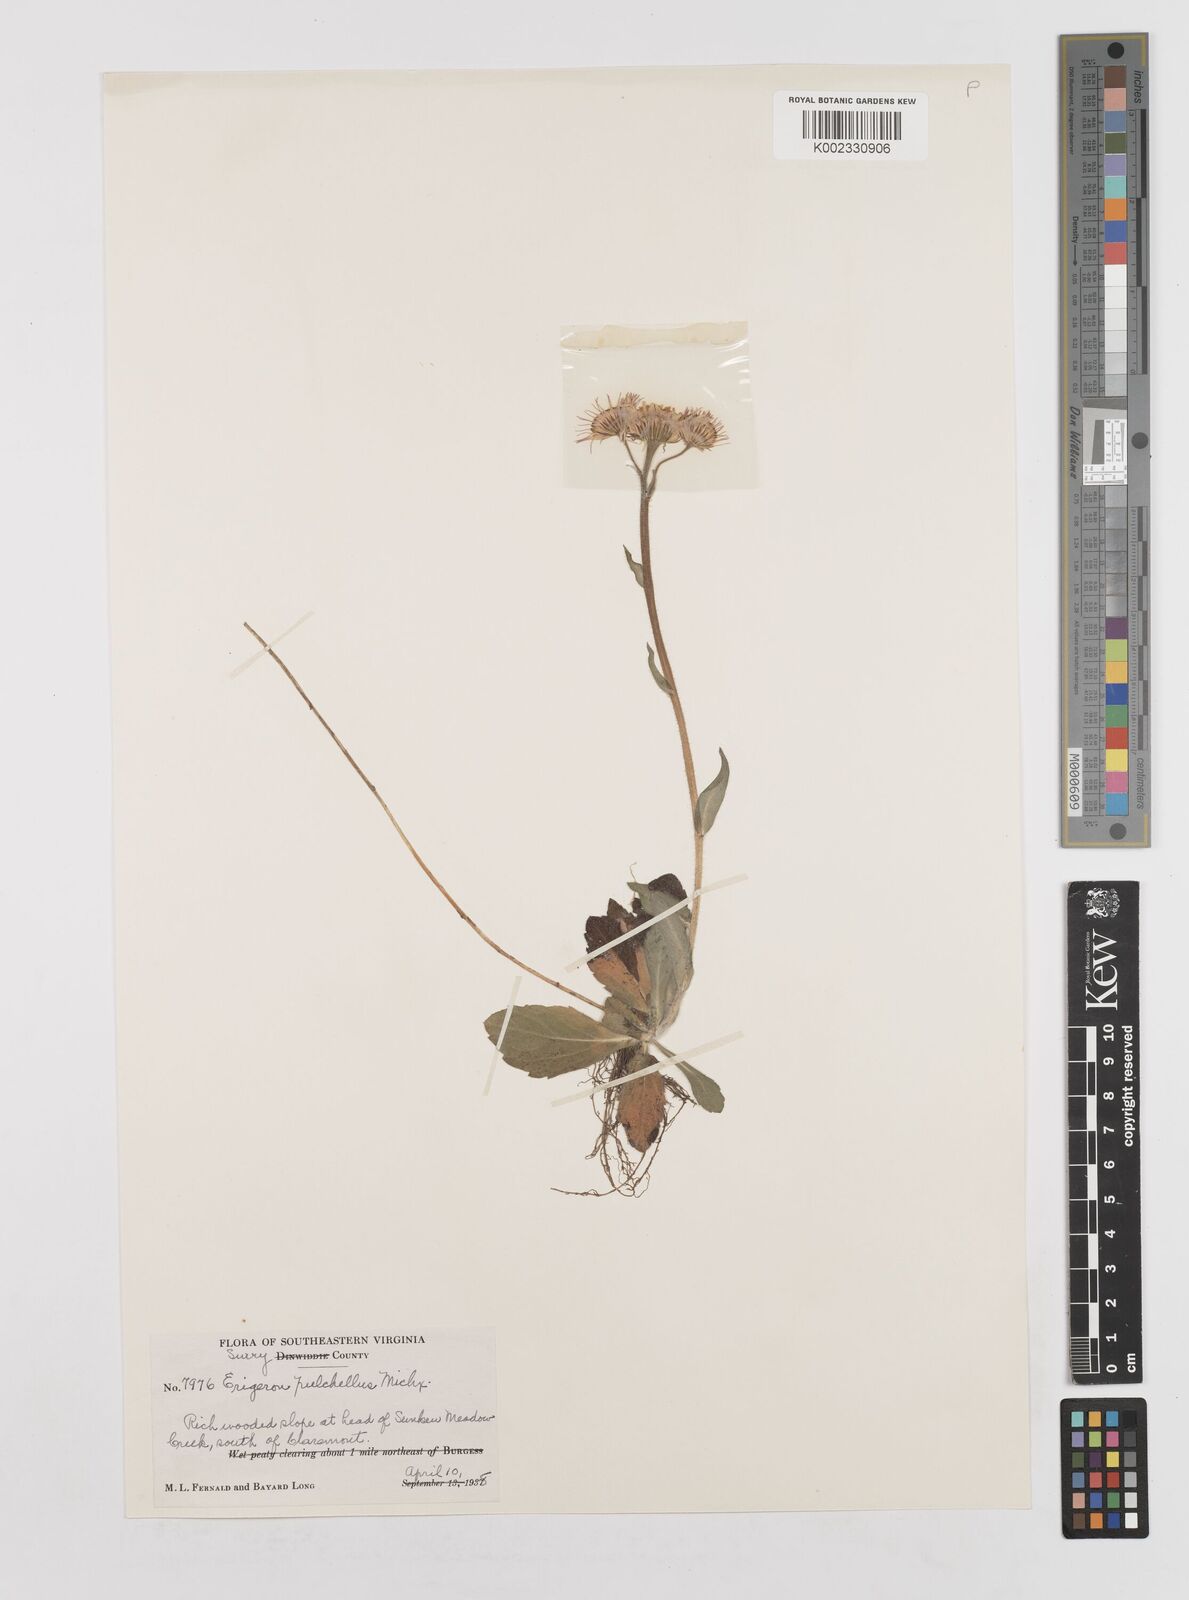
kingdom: Plantae
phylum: Tracheophyta
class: Magnoliopsida
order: Asterales
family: Asteraceae
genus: Erigeron
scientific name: Erigeron pulchellus
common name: Hairy fleabane
